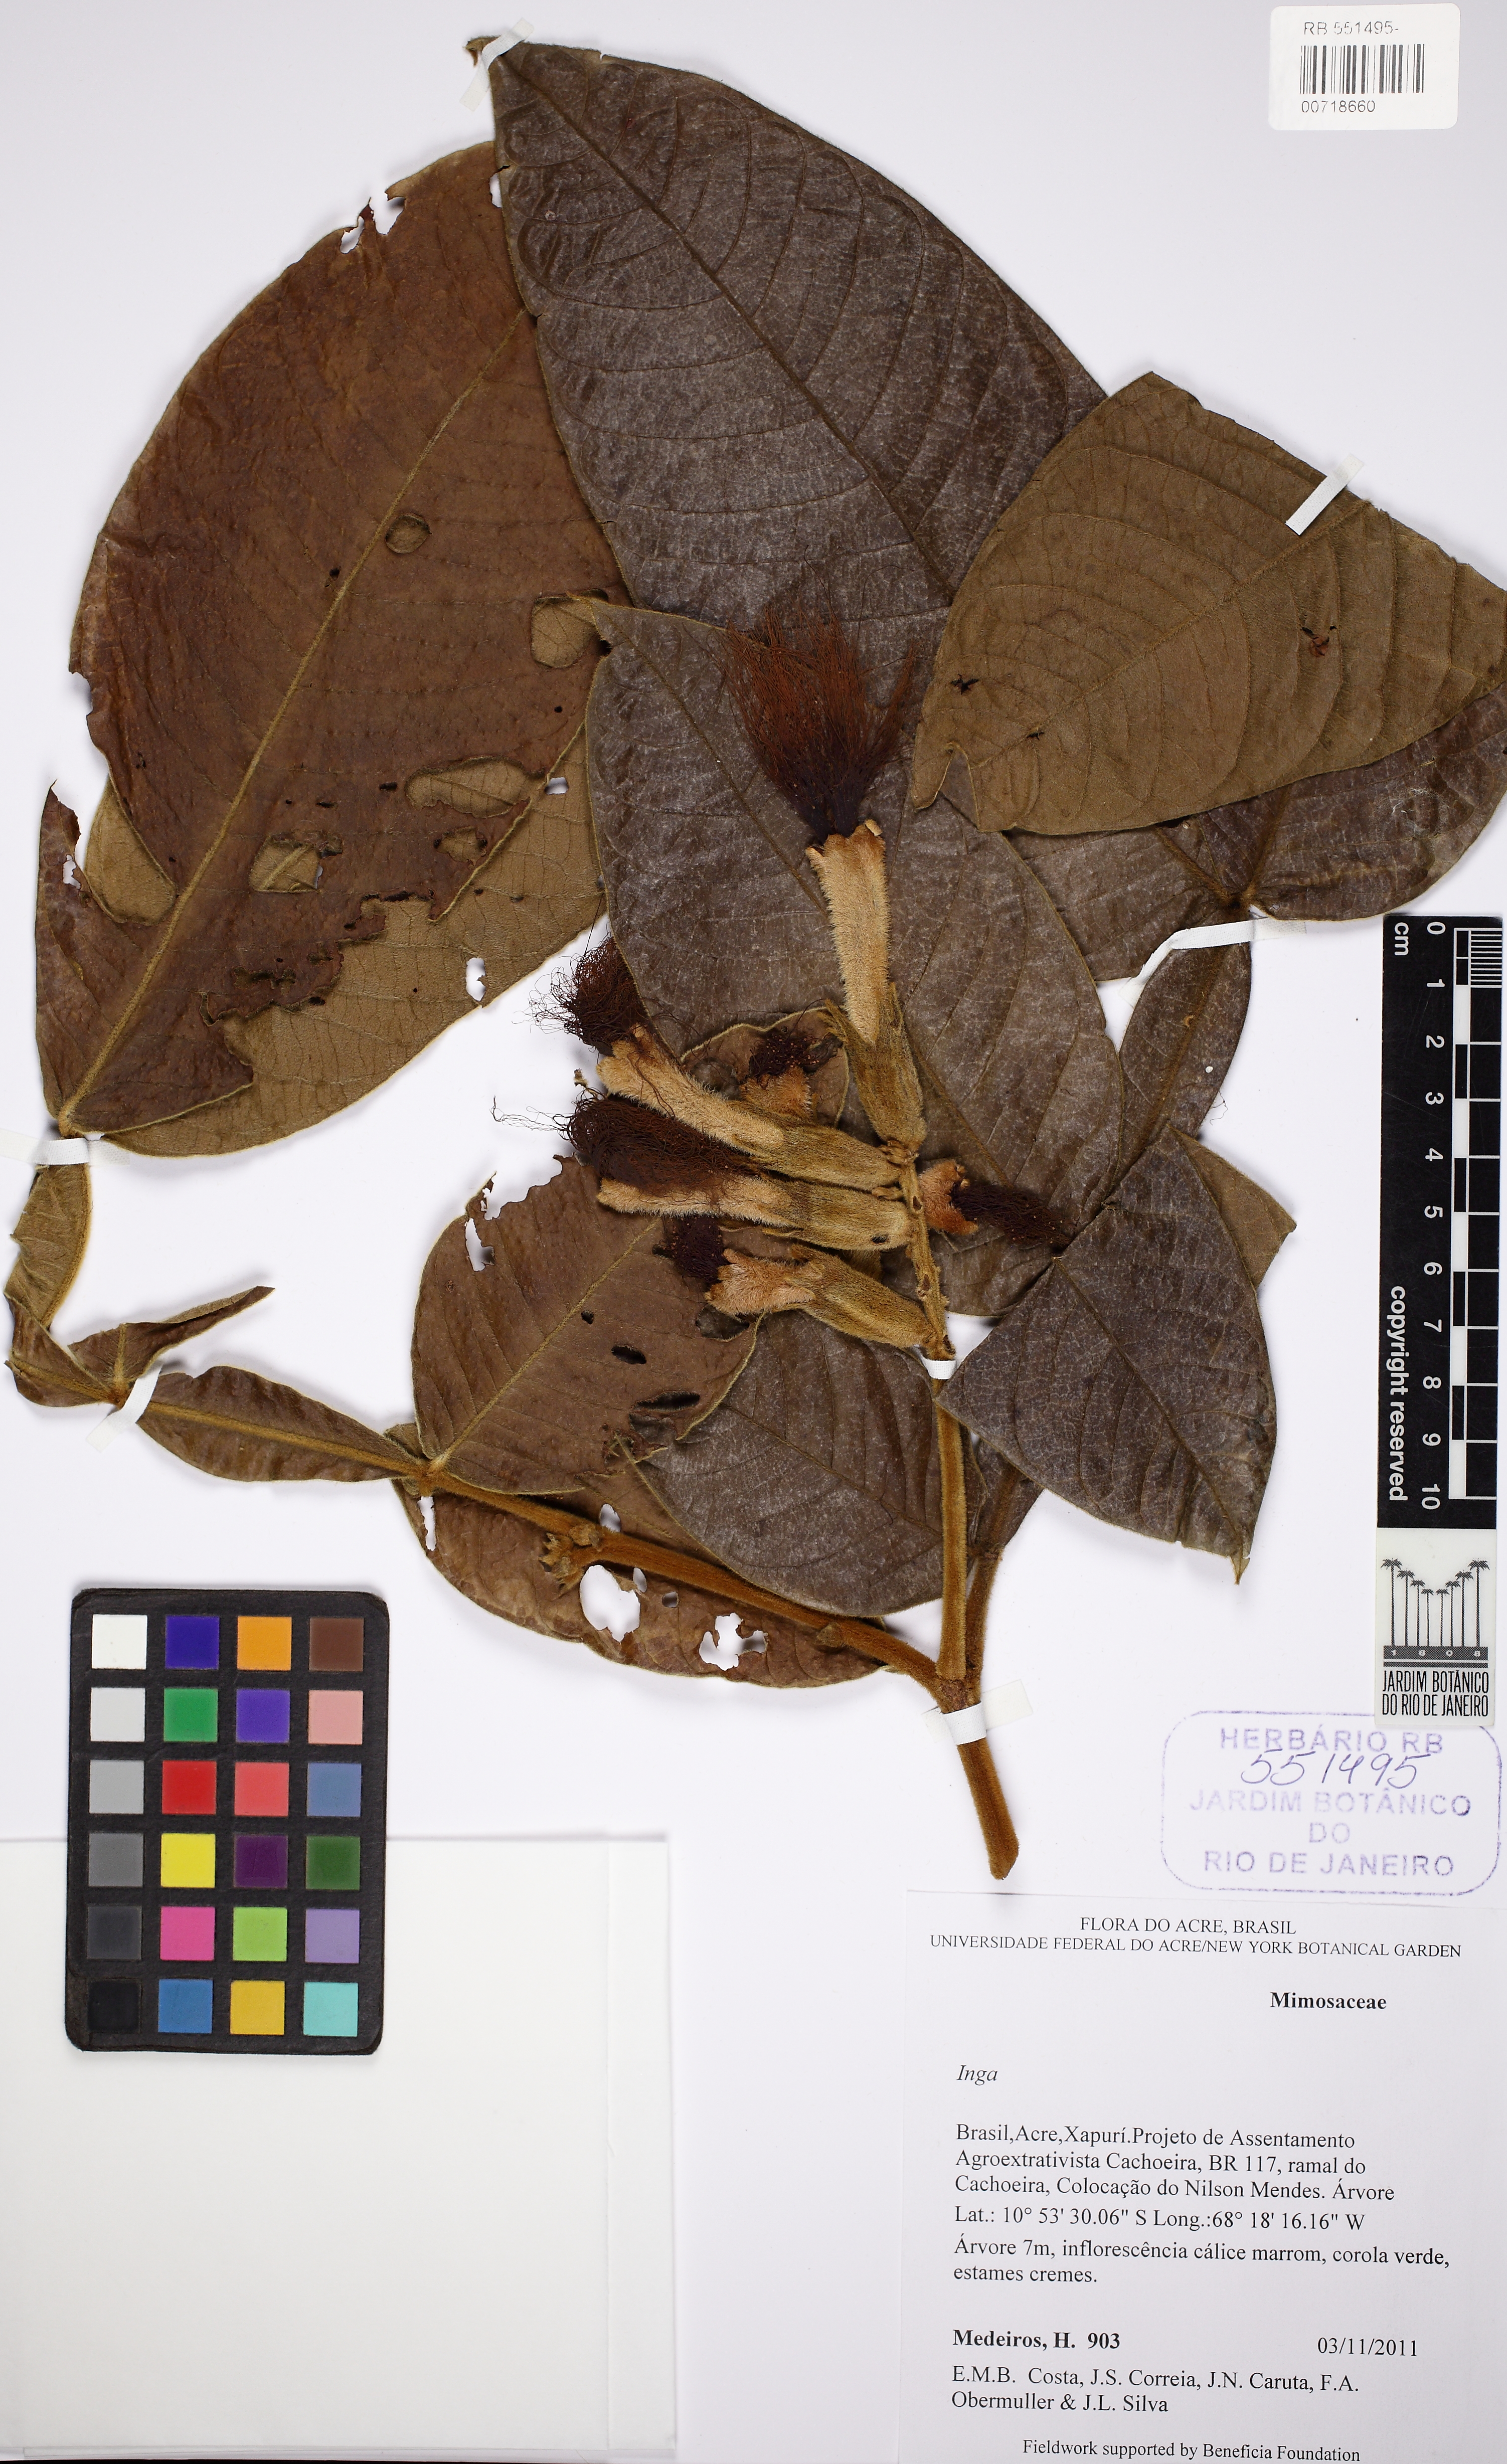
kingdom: Plantae
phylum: Tracheophyta
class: Magnoliopsida
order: Fabales
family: Fabaceae
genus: Inga
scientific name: Inga
